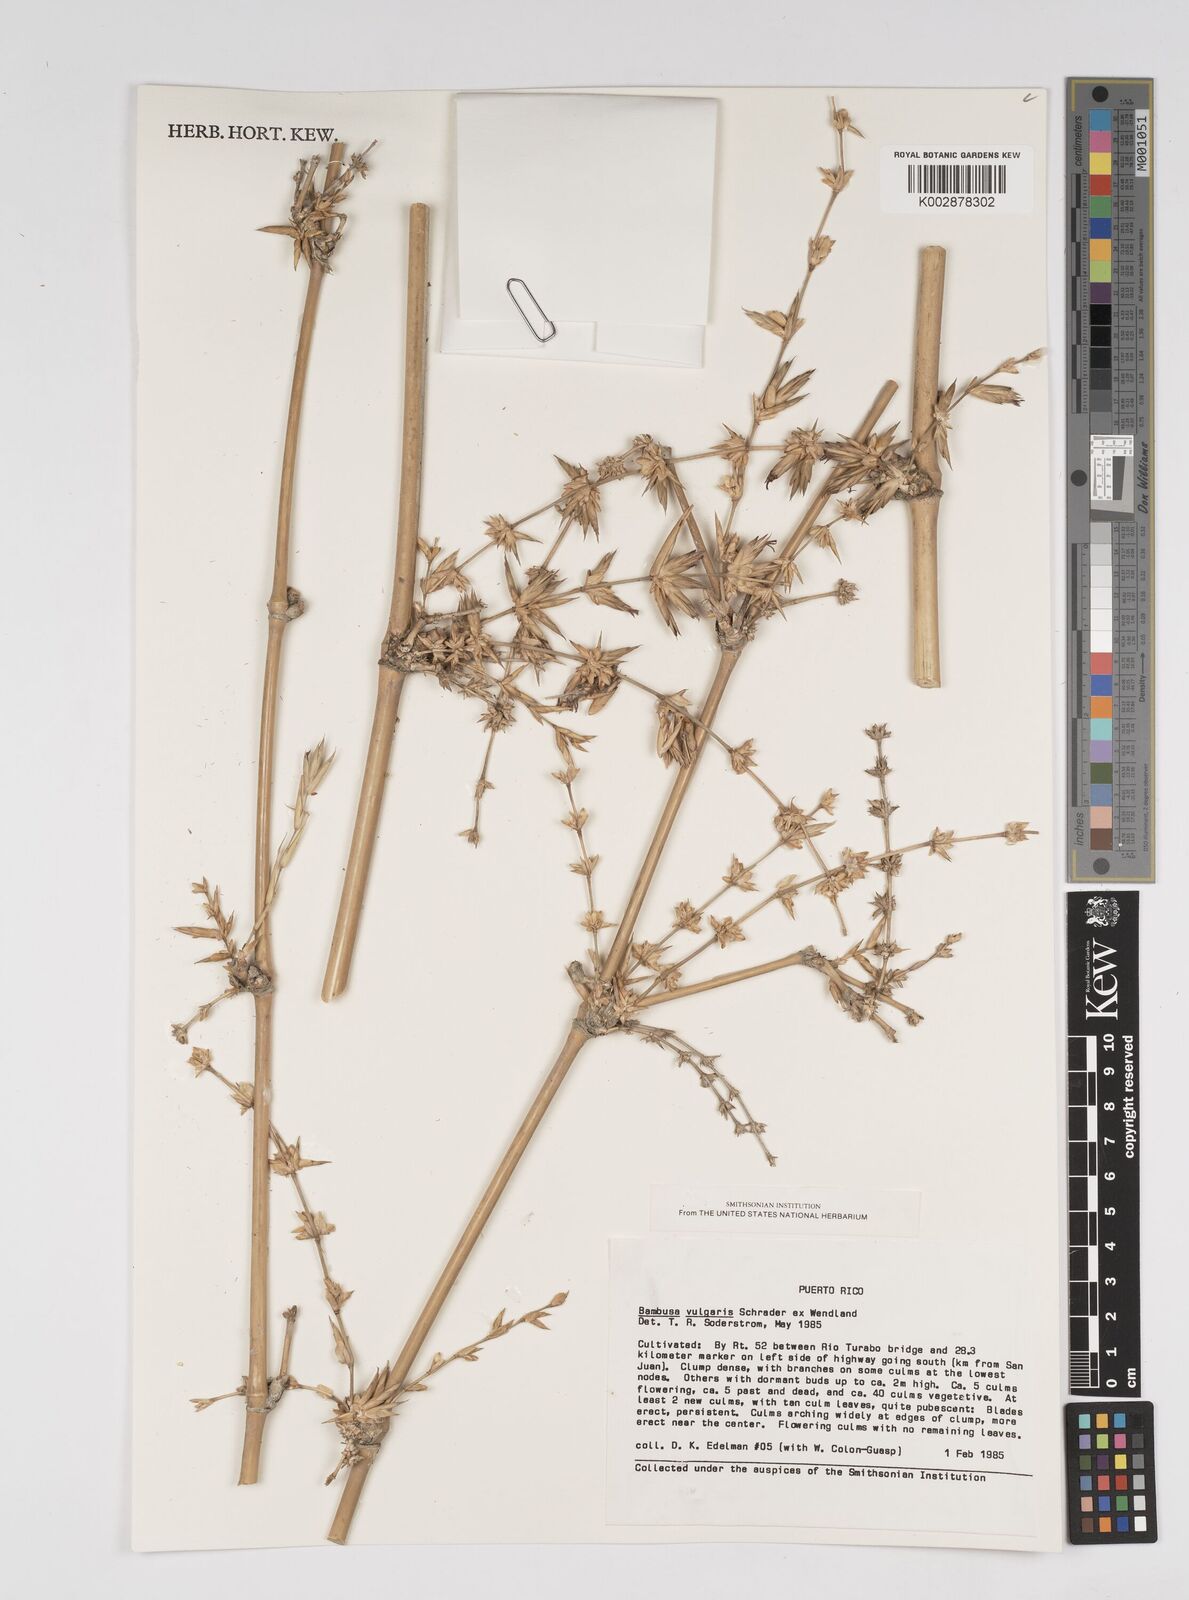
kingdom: Plantae
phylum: Tracheophyta
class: Liliopsida
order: Poales
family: Poaceae
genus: Bambusa
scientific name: Bambusa vulgaris
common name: Common bamboo
